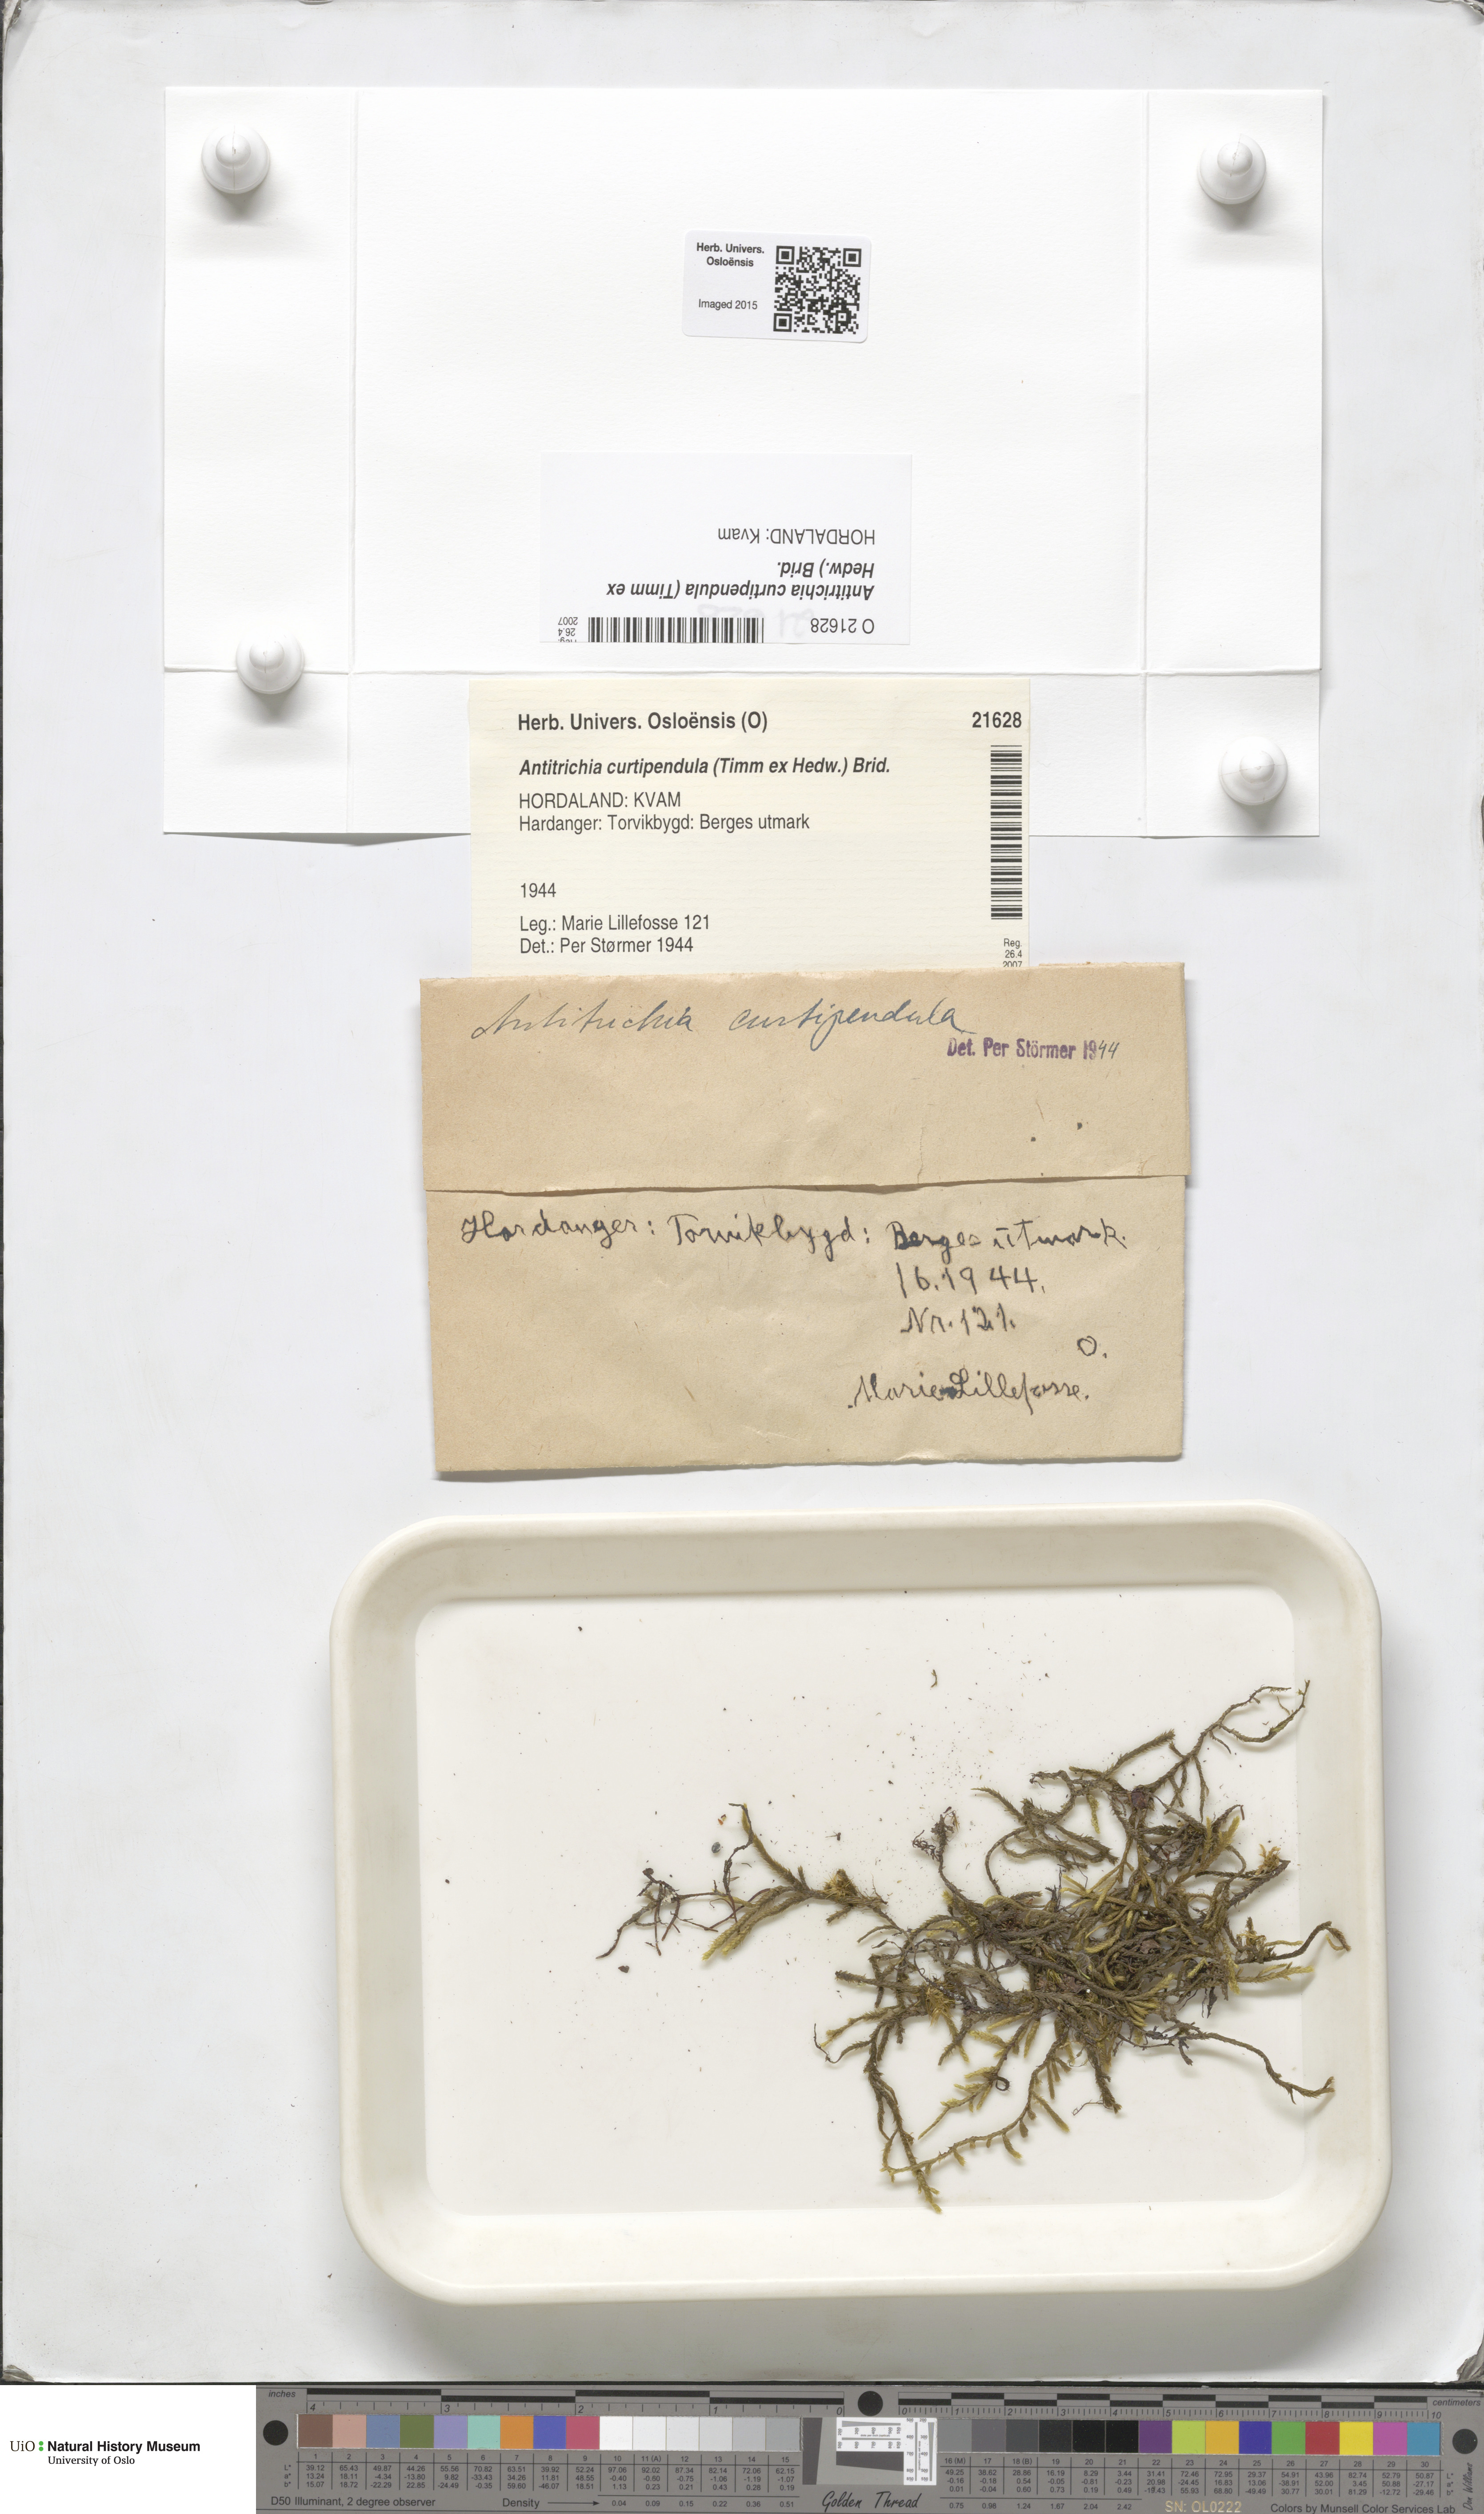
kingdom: Plantae
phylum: Bryophyta
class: Bryopsida
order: Hypnales
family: Antitrichiaceae
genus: Antitrichia
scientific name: Antitrichia curtipendula
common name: Pendulous wing-moss
